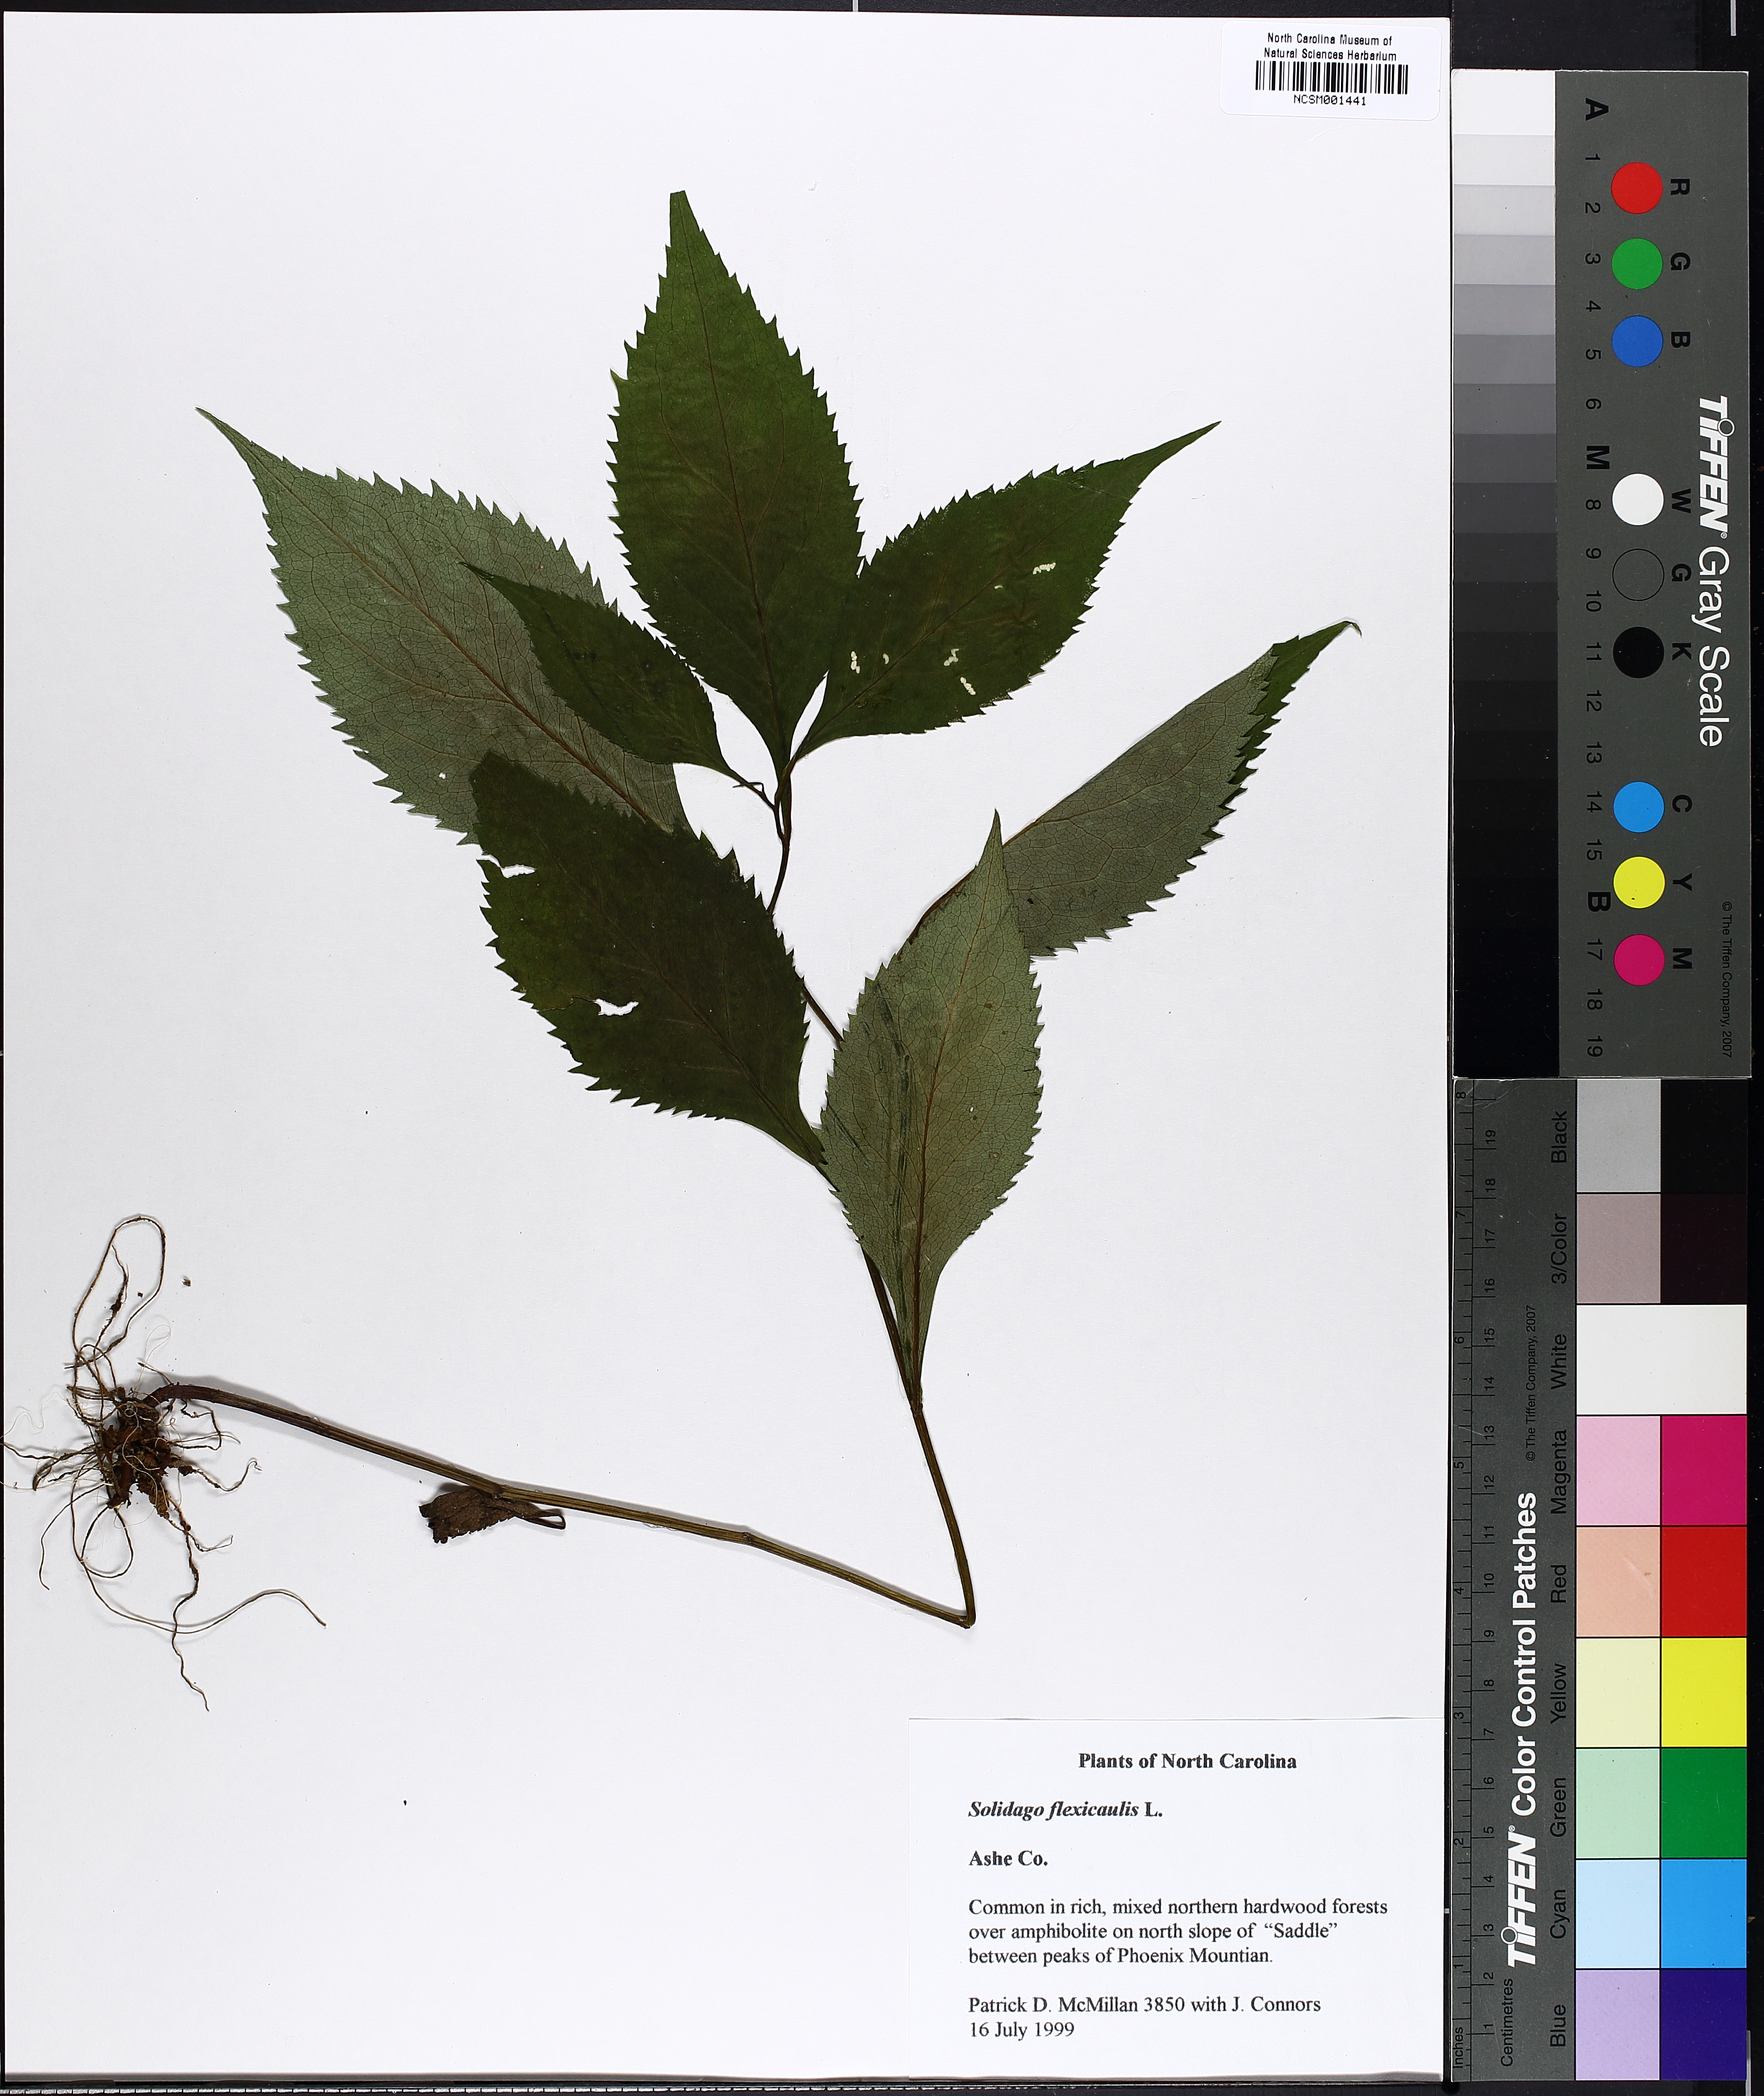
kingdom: Plantae
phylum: Tracheophyta
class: Magnoliopsida
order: Asterales
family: Asteraceae
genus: Solidago
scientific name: Solidago flexicaulis
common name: Zig-zag goldenrod
